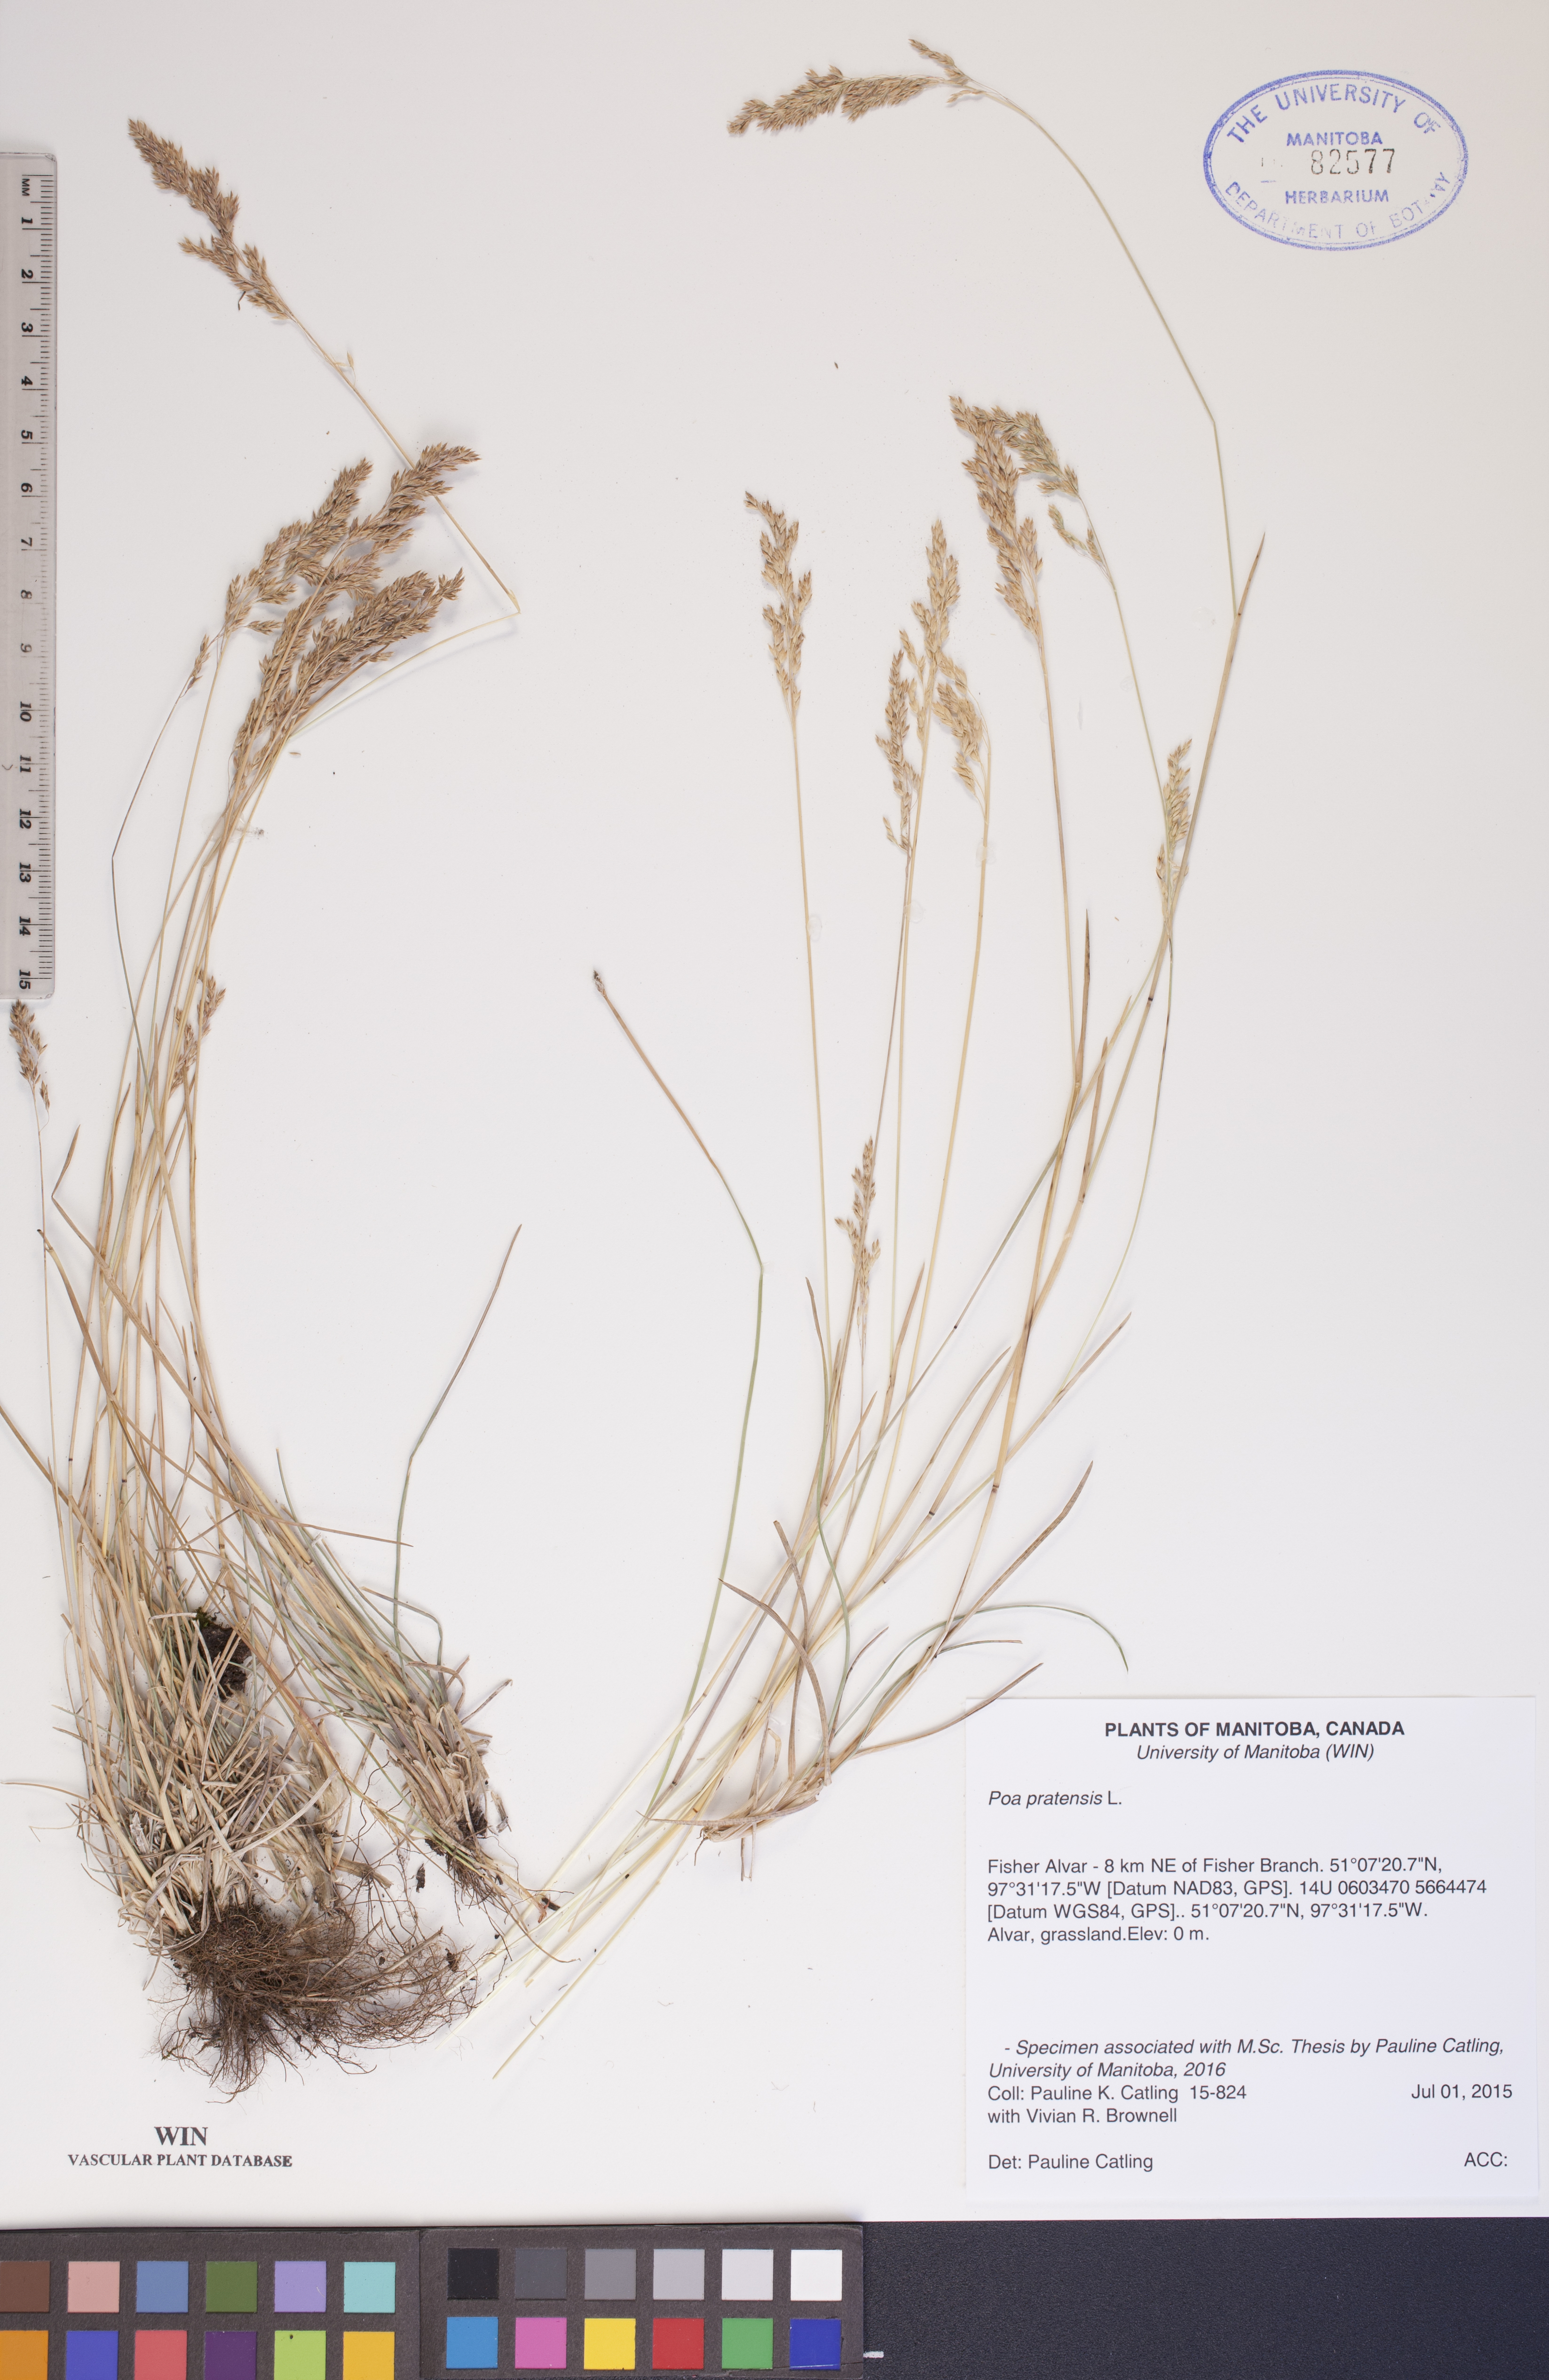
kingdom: Plantae
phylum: Tracheophyta
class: Liliopsida
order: Poales
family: Poaceae
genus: Poa
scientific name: Poa pratensis
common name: Kentucky bluegrass
